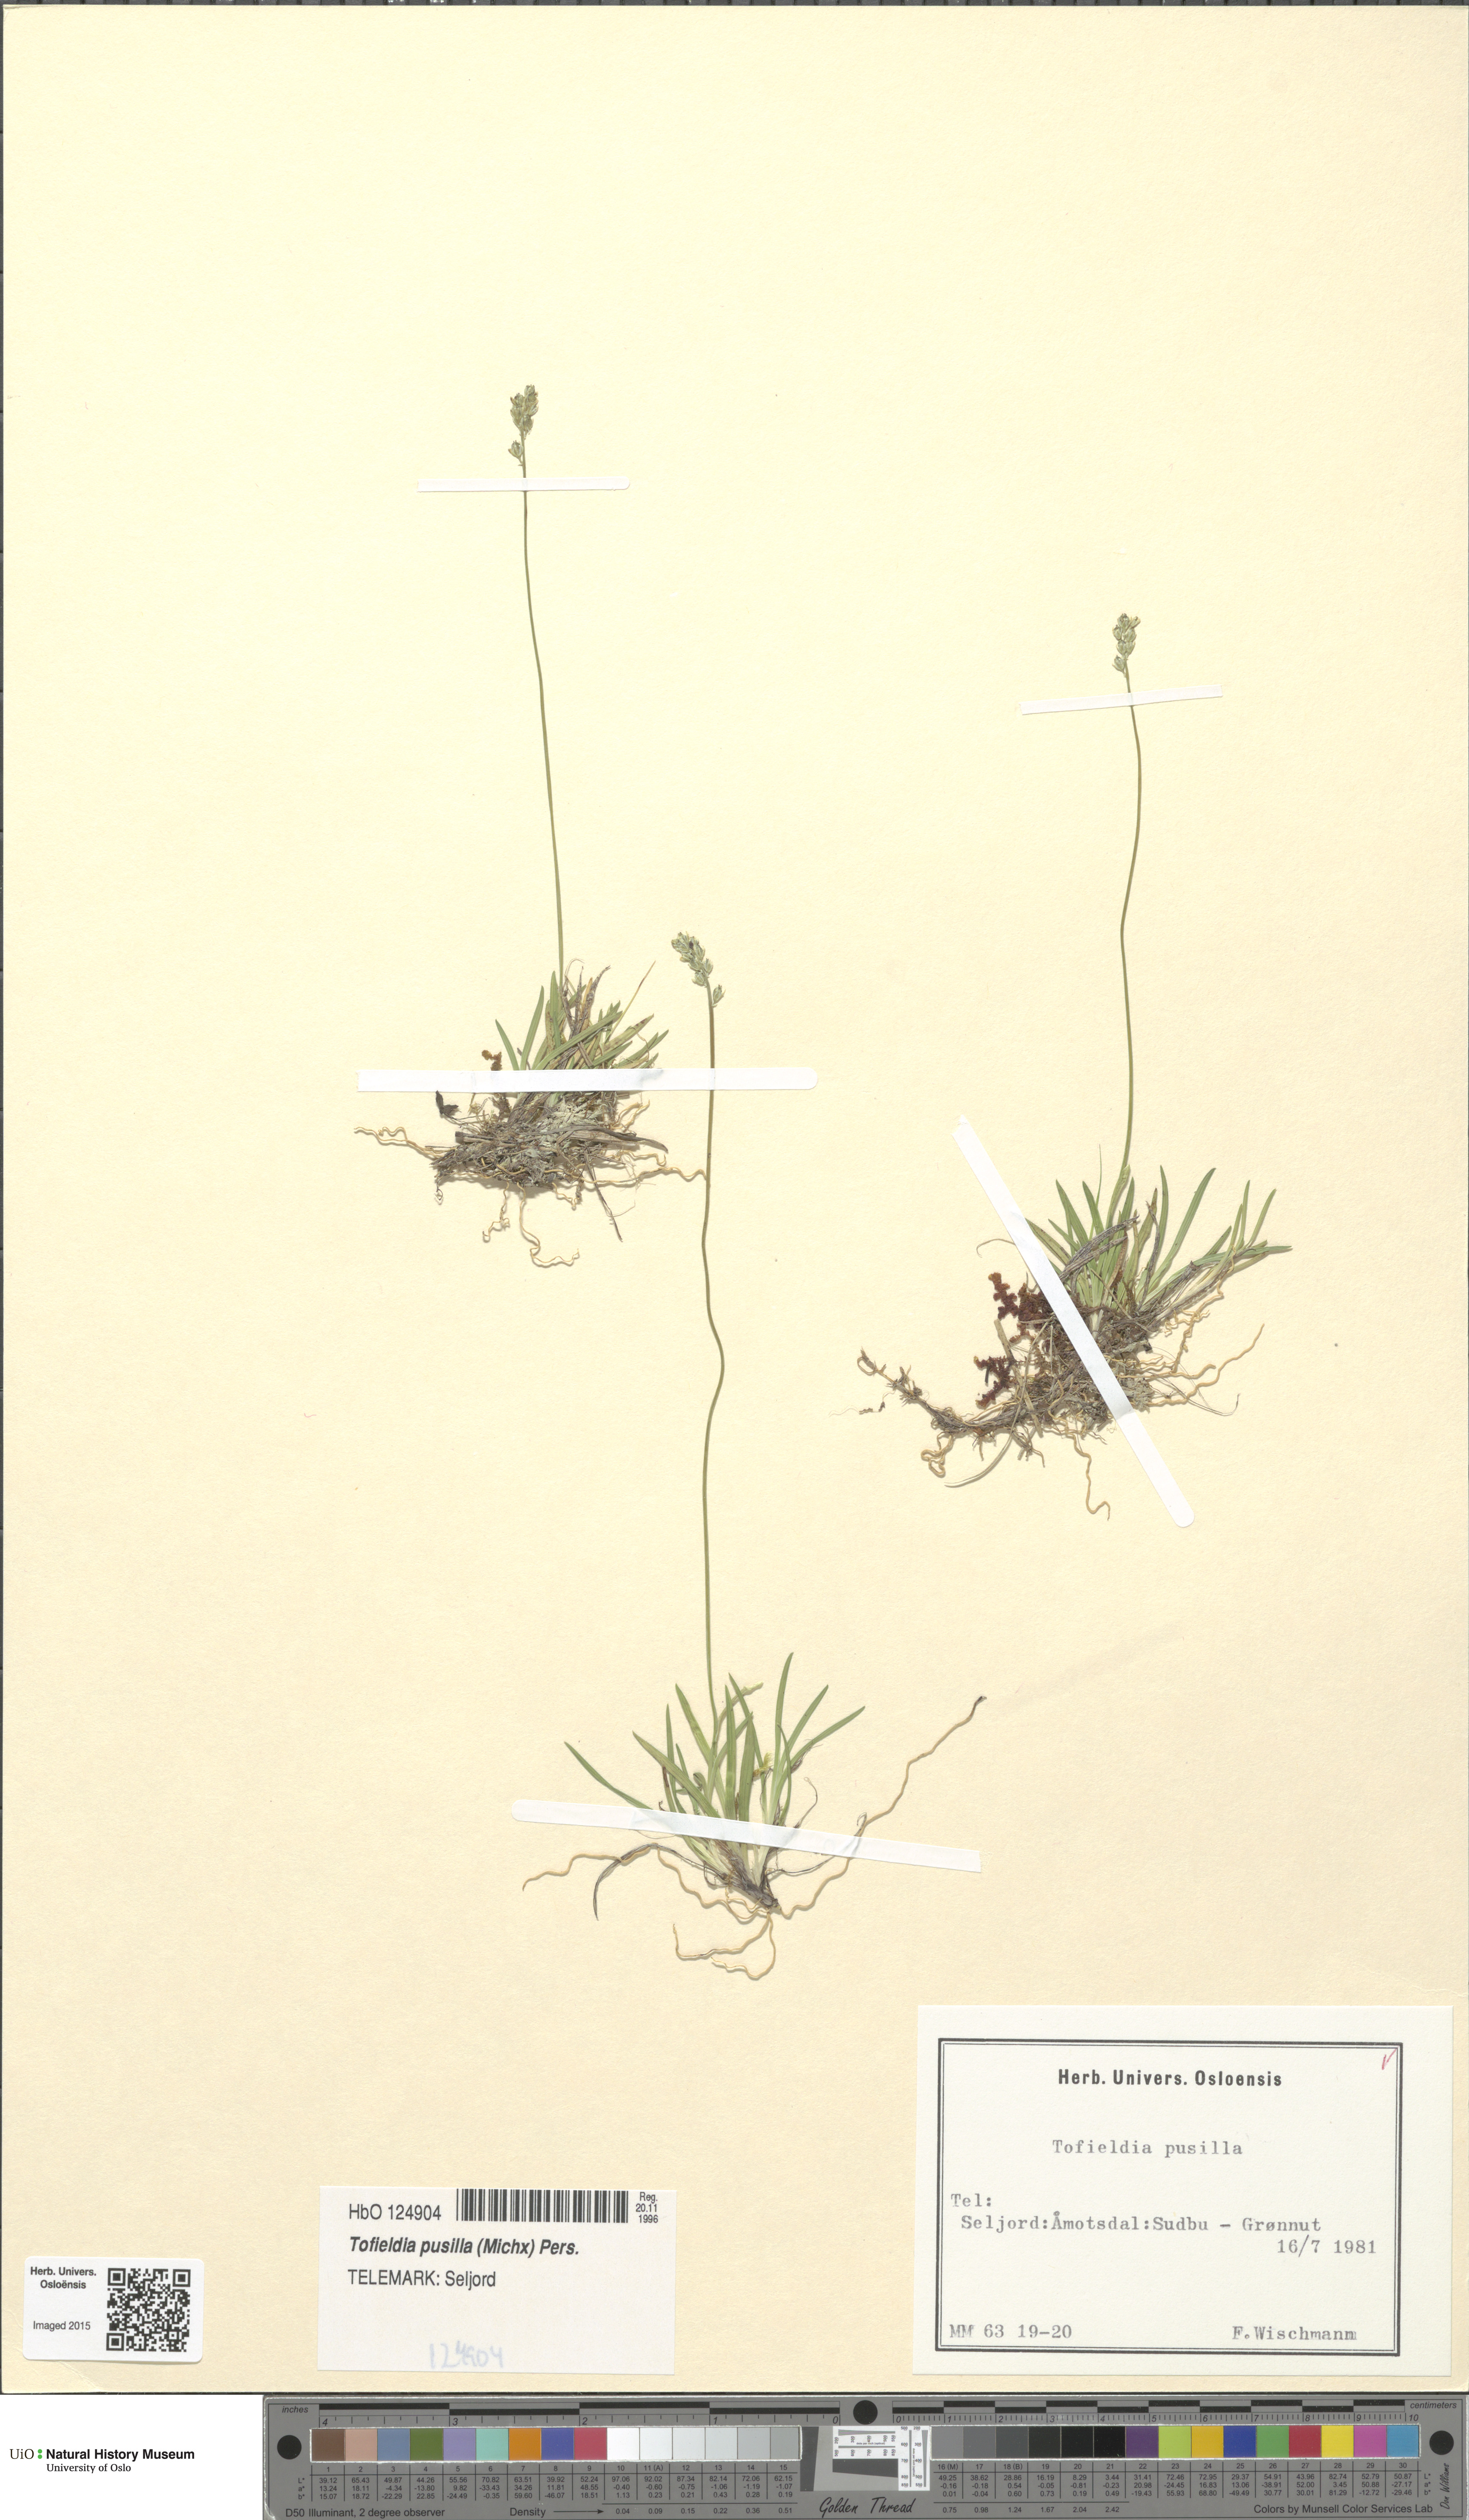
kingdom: Plantae
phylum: Tracheophyta
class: Liliopsida
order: Alismatales
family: Tofieldiaceae
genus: Tofieldia
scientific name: Tofieldia pusilla
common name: Scottish false asphodel
